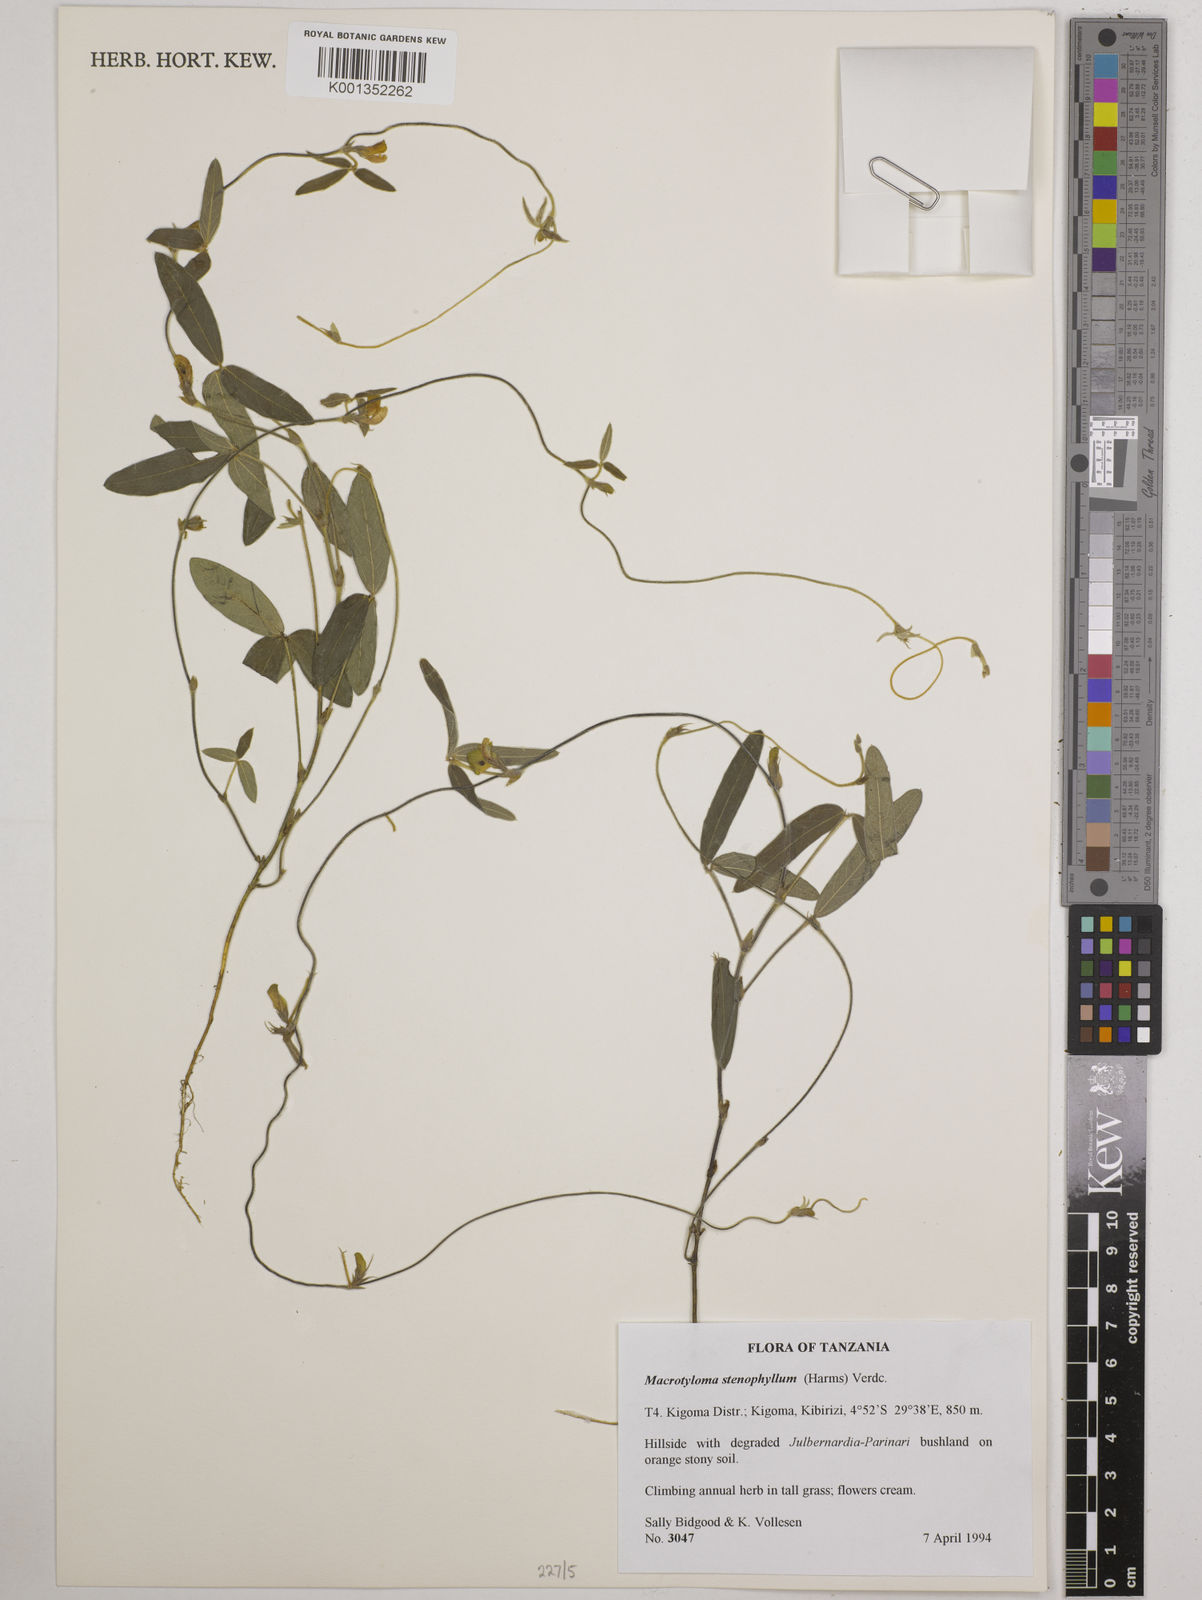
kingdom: Plantae
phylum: Tracheophyta
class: Magnoliopsida
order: Fabales
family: Fabaceae
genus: Macrotyloma
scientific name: Macrotyloma stenophyllum
